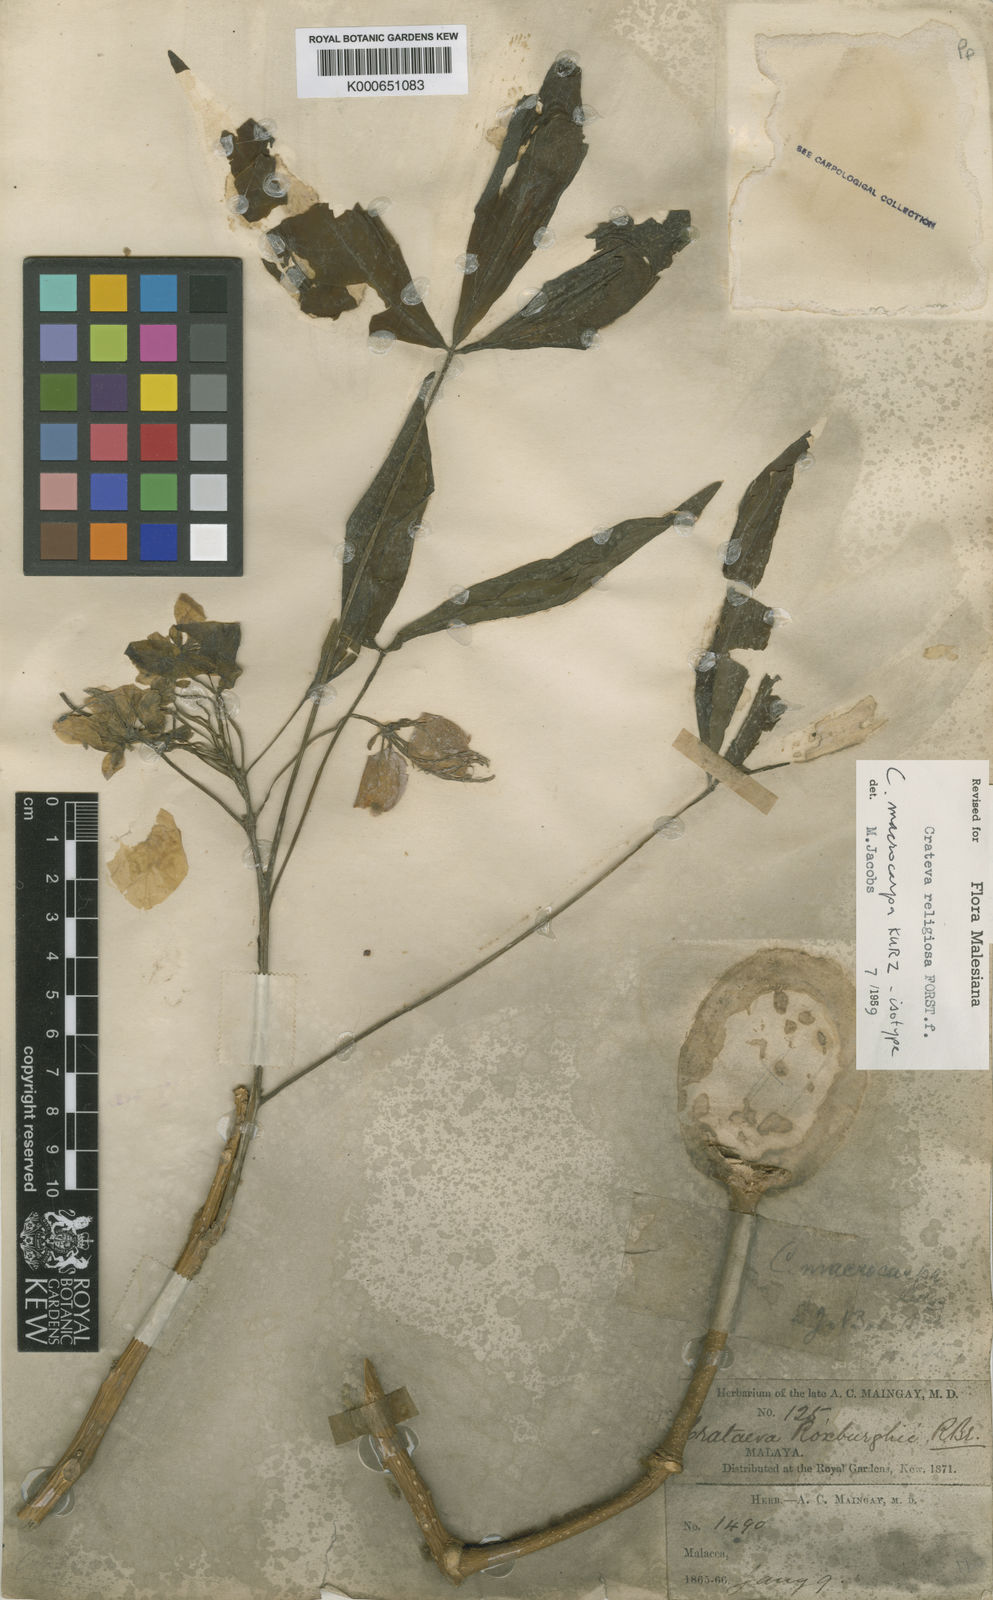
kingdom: Plantae
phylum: Tracheophyta
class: Magnoliopsida
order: Brassicales
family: Capparaceae
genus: Crateva
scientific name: Crateva religiosa
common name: March dalur
